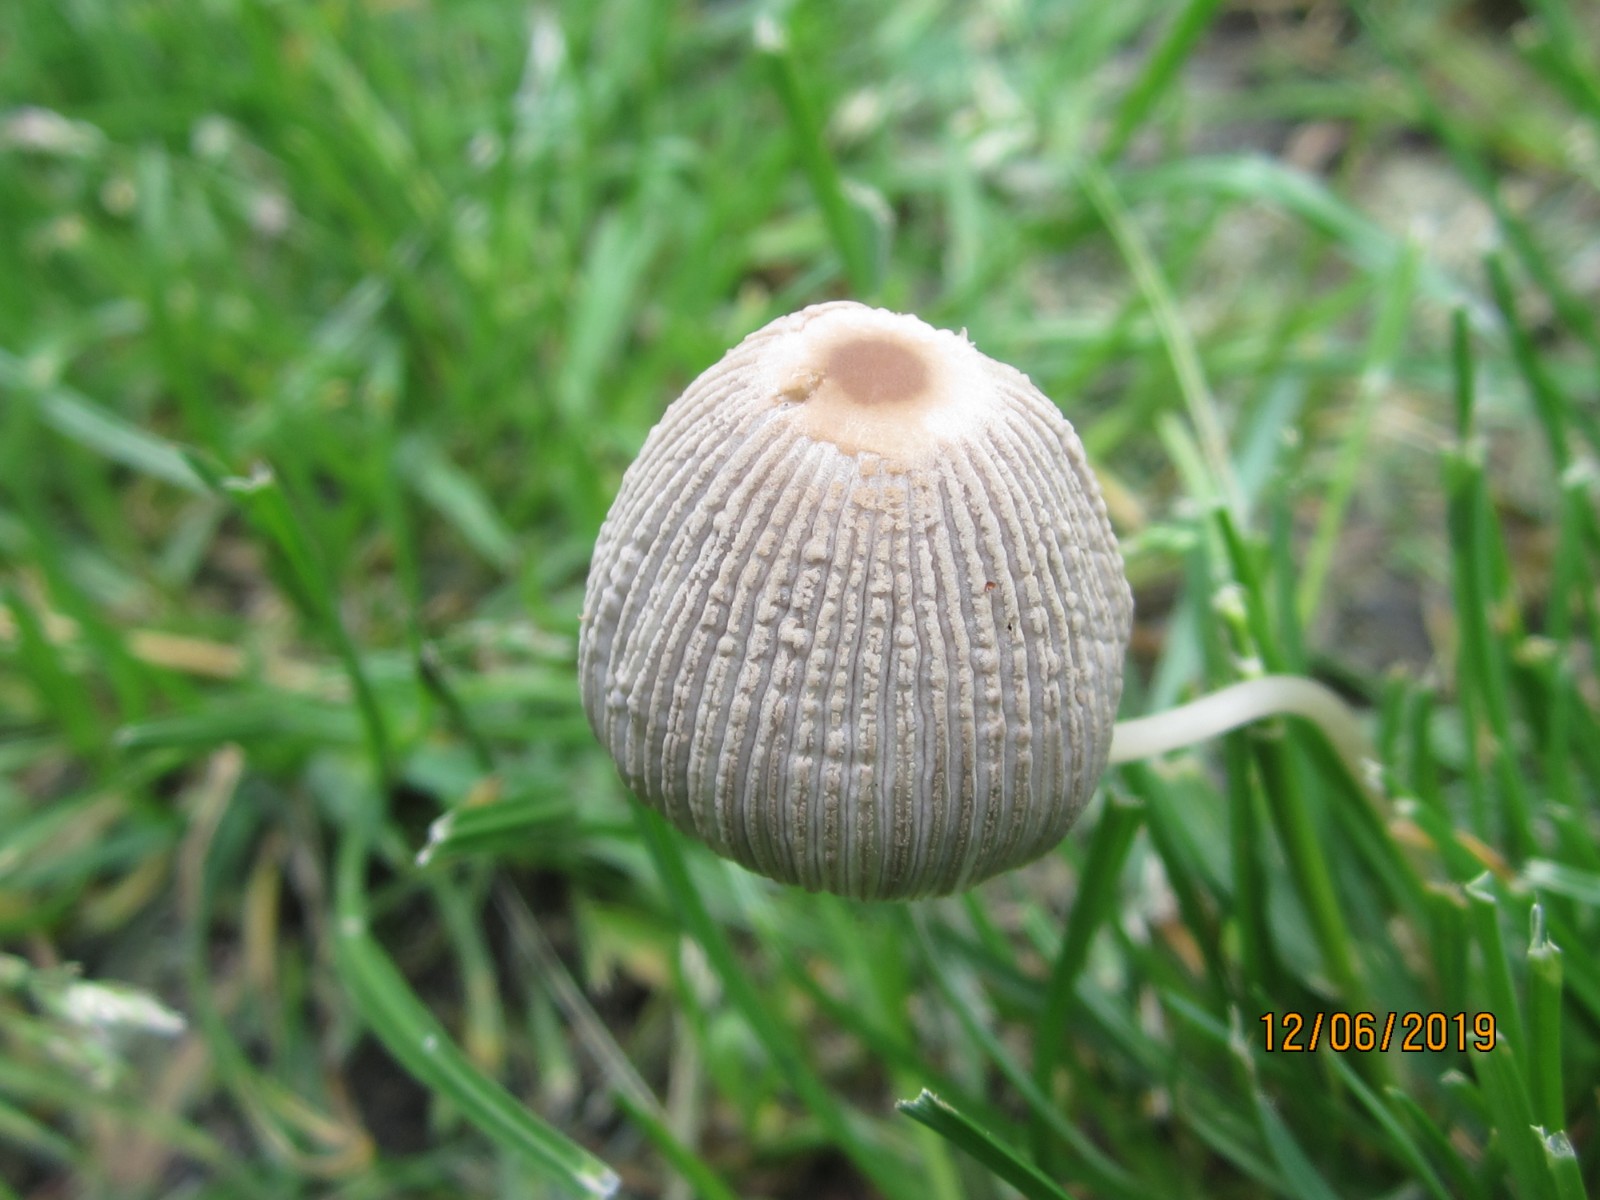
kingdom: Fungi
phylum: Basidiomycota
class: Agaricomycetes
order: Agaricales
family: Psathyrellaceae
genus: Parasola
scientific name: Parasola plicatilis
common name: plæne-hjulhat
